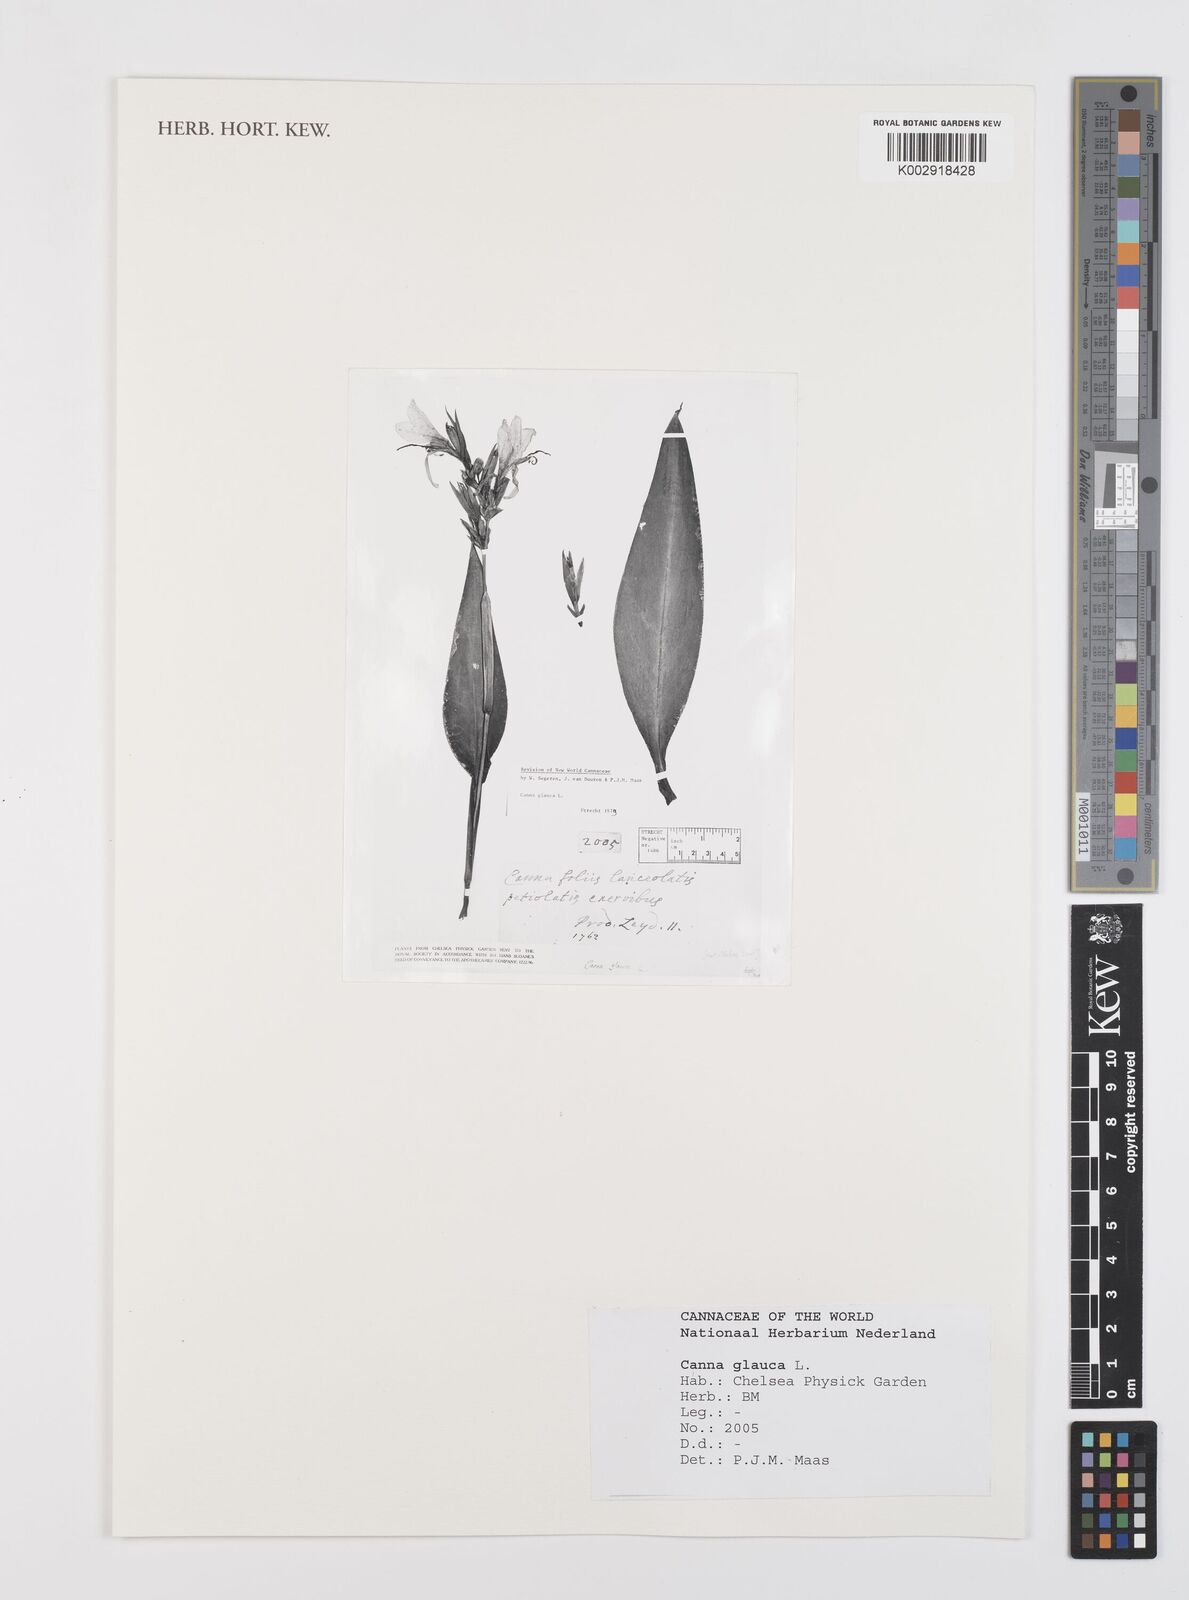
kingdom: Plantae
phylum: Tracheophyta
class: Liliopsida
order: Zingiberales
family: Cannaceae
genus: Canna
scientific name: Canna glauca
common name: Louisiana canna
